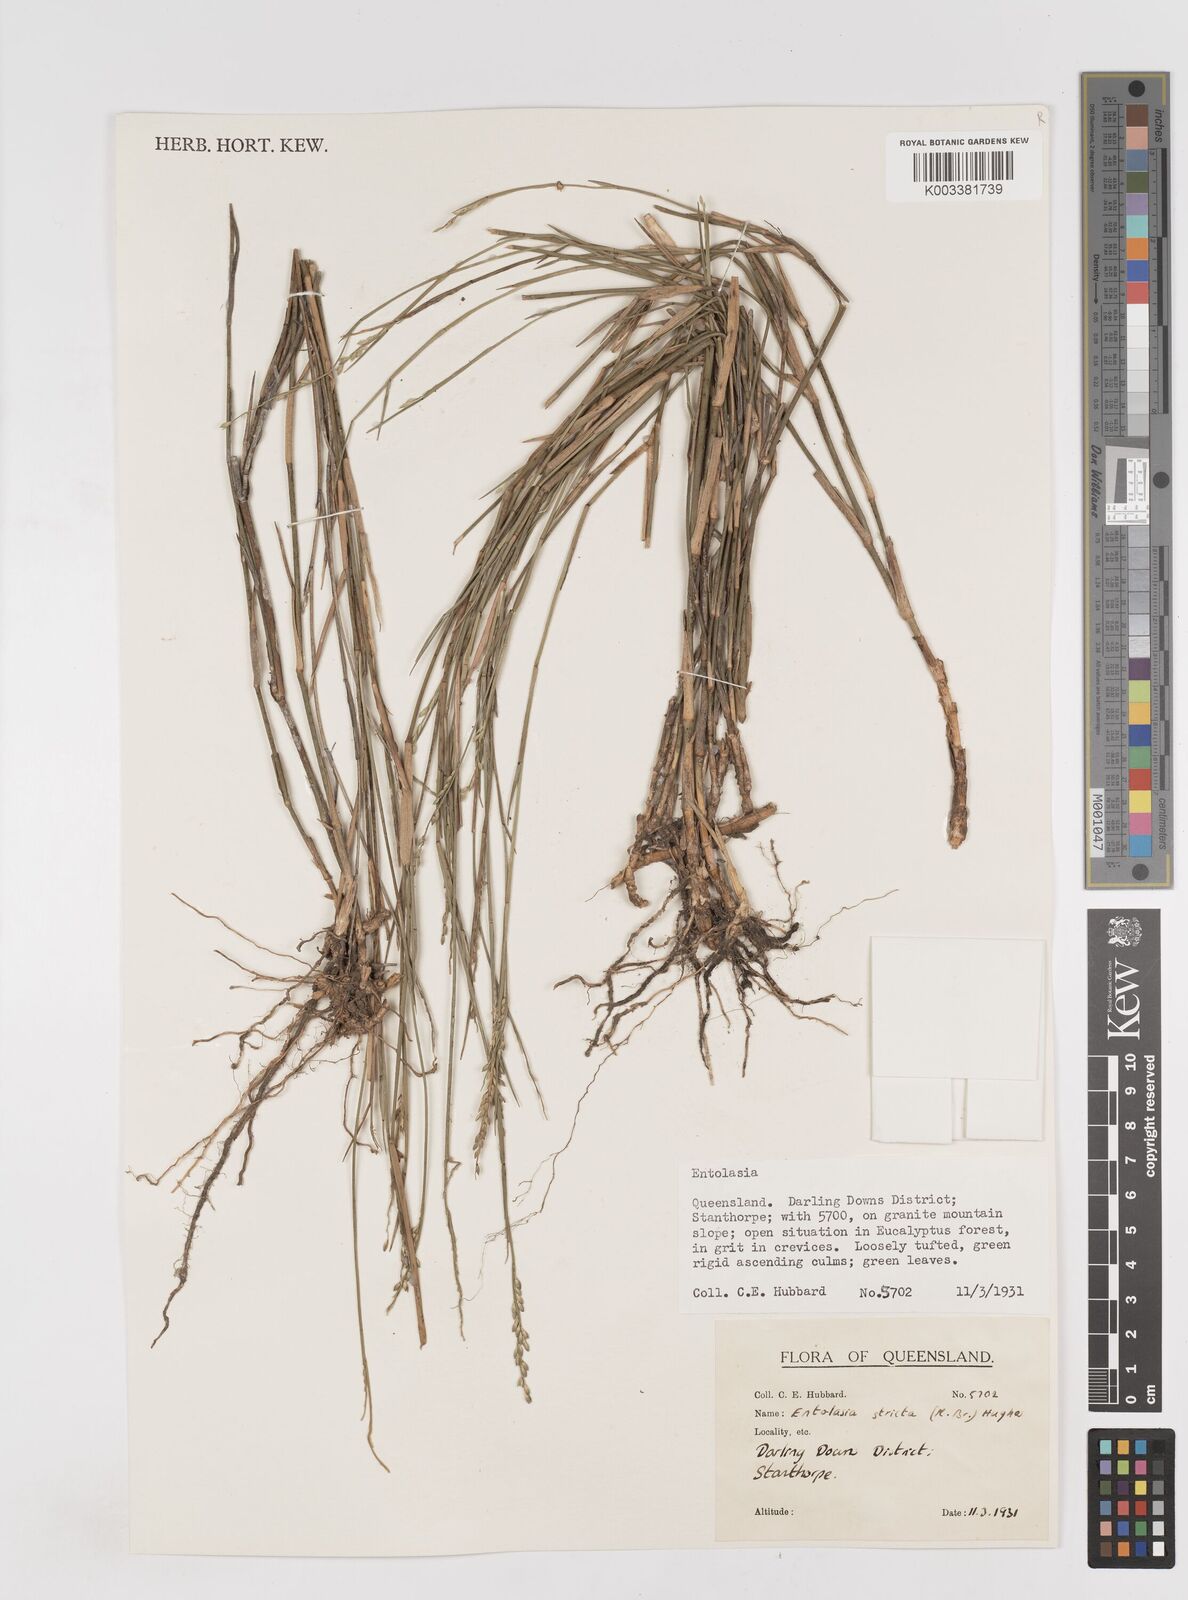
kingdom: Plantae
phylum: Tracheophyta
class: Liliopsida
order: Poales
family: Poaceae
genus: Entolasia
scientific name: Entolasia stricta
